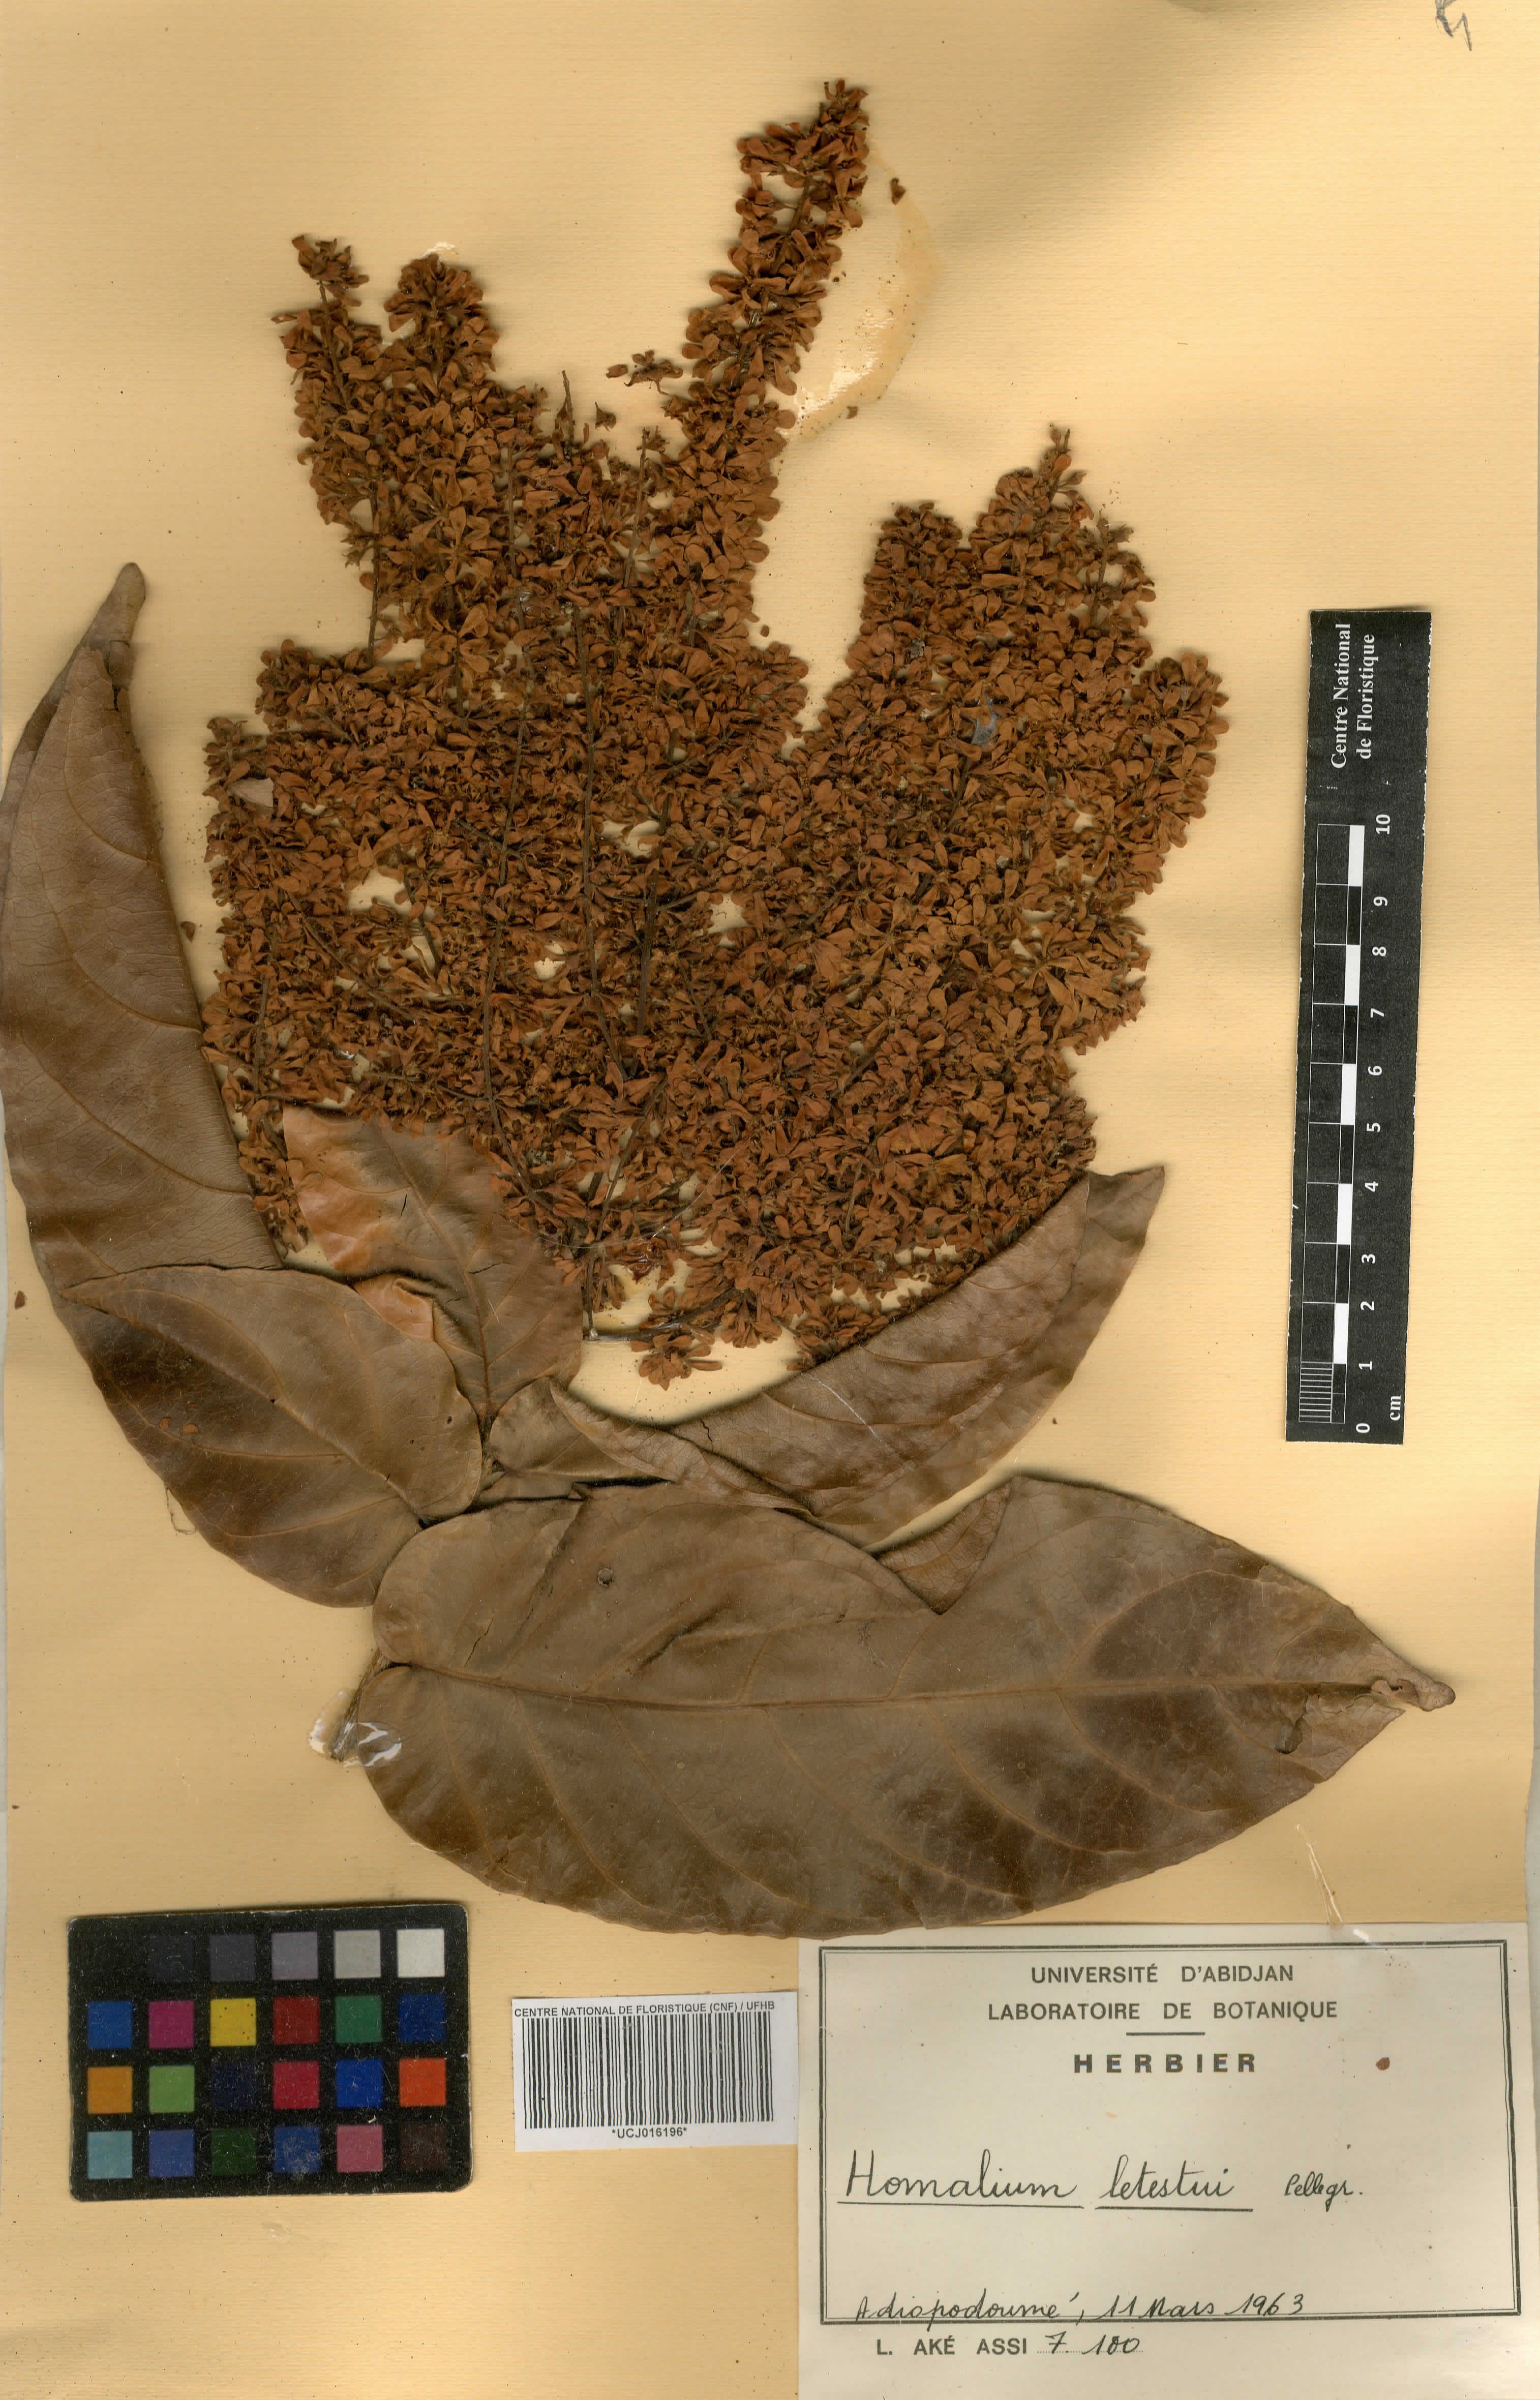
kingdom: Plantae
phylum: Tracheophyta
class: Magnoliopsida
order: Malpighiales
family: Salicaceae
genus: Homalium
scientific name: Homalium letestui
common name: African homalium
